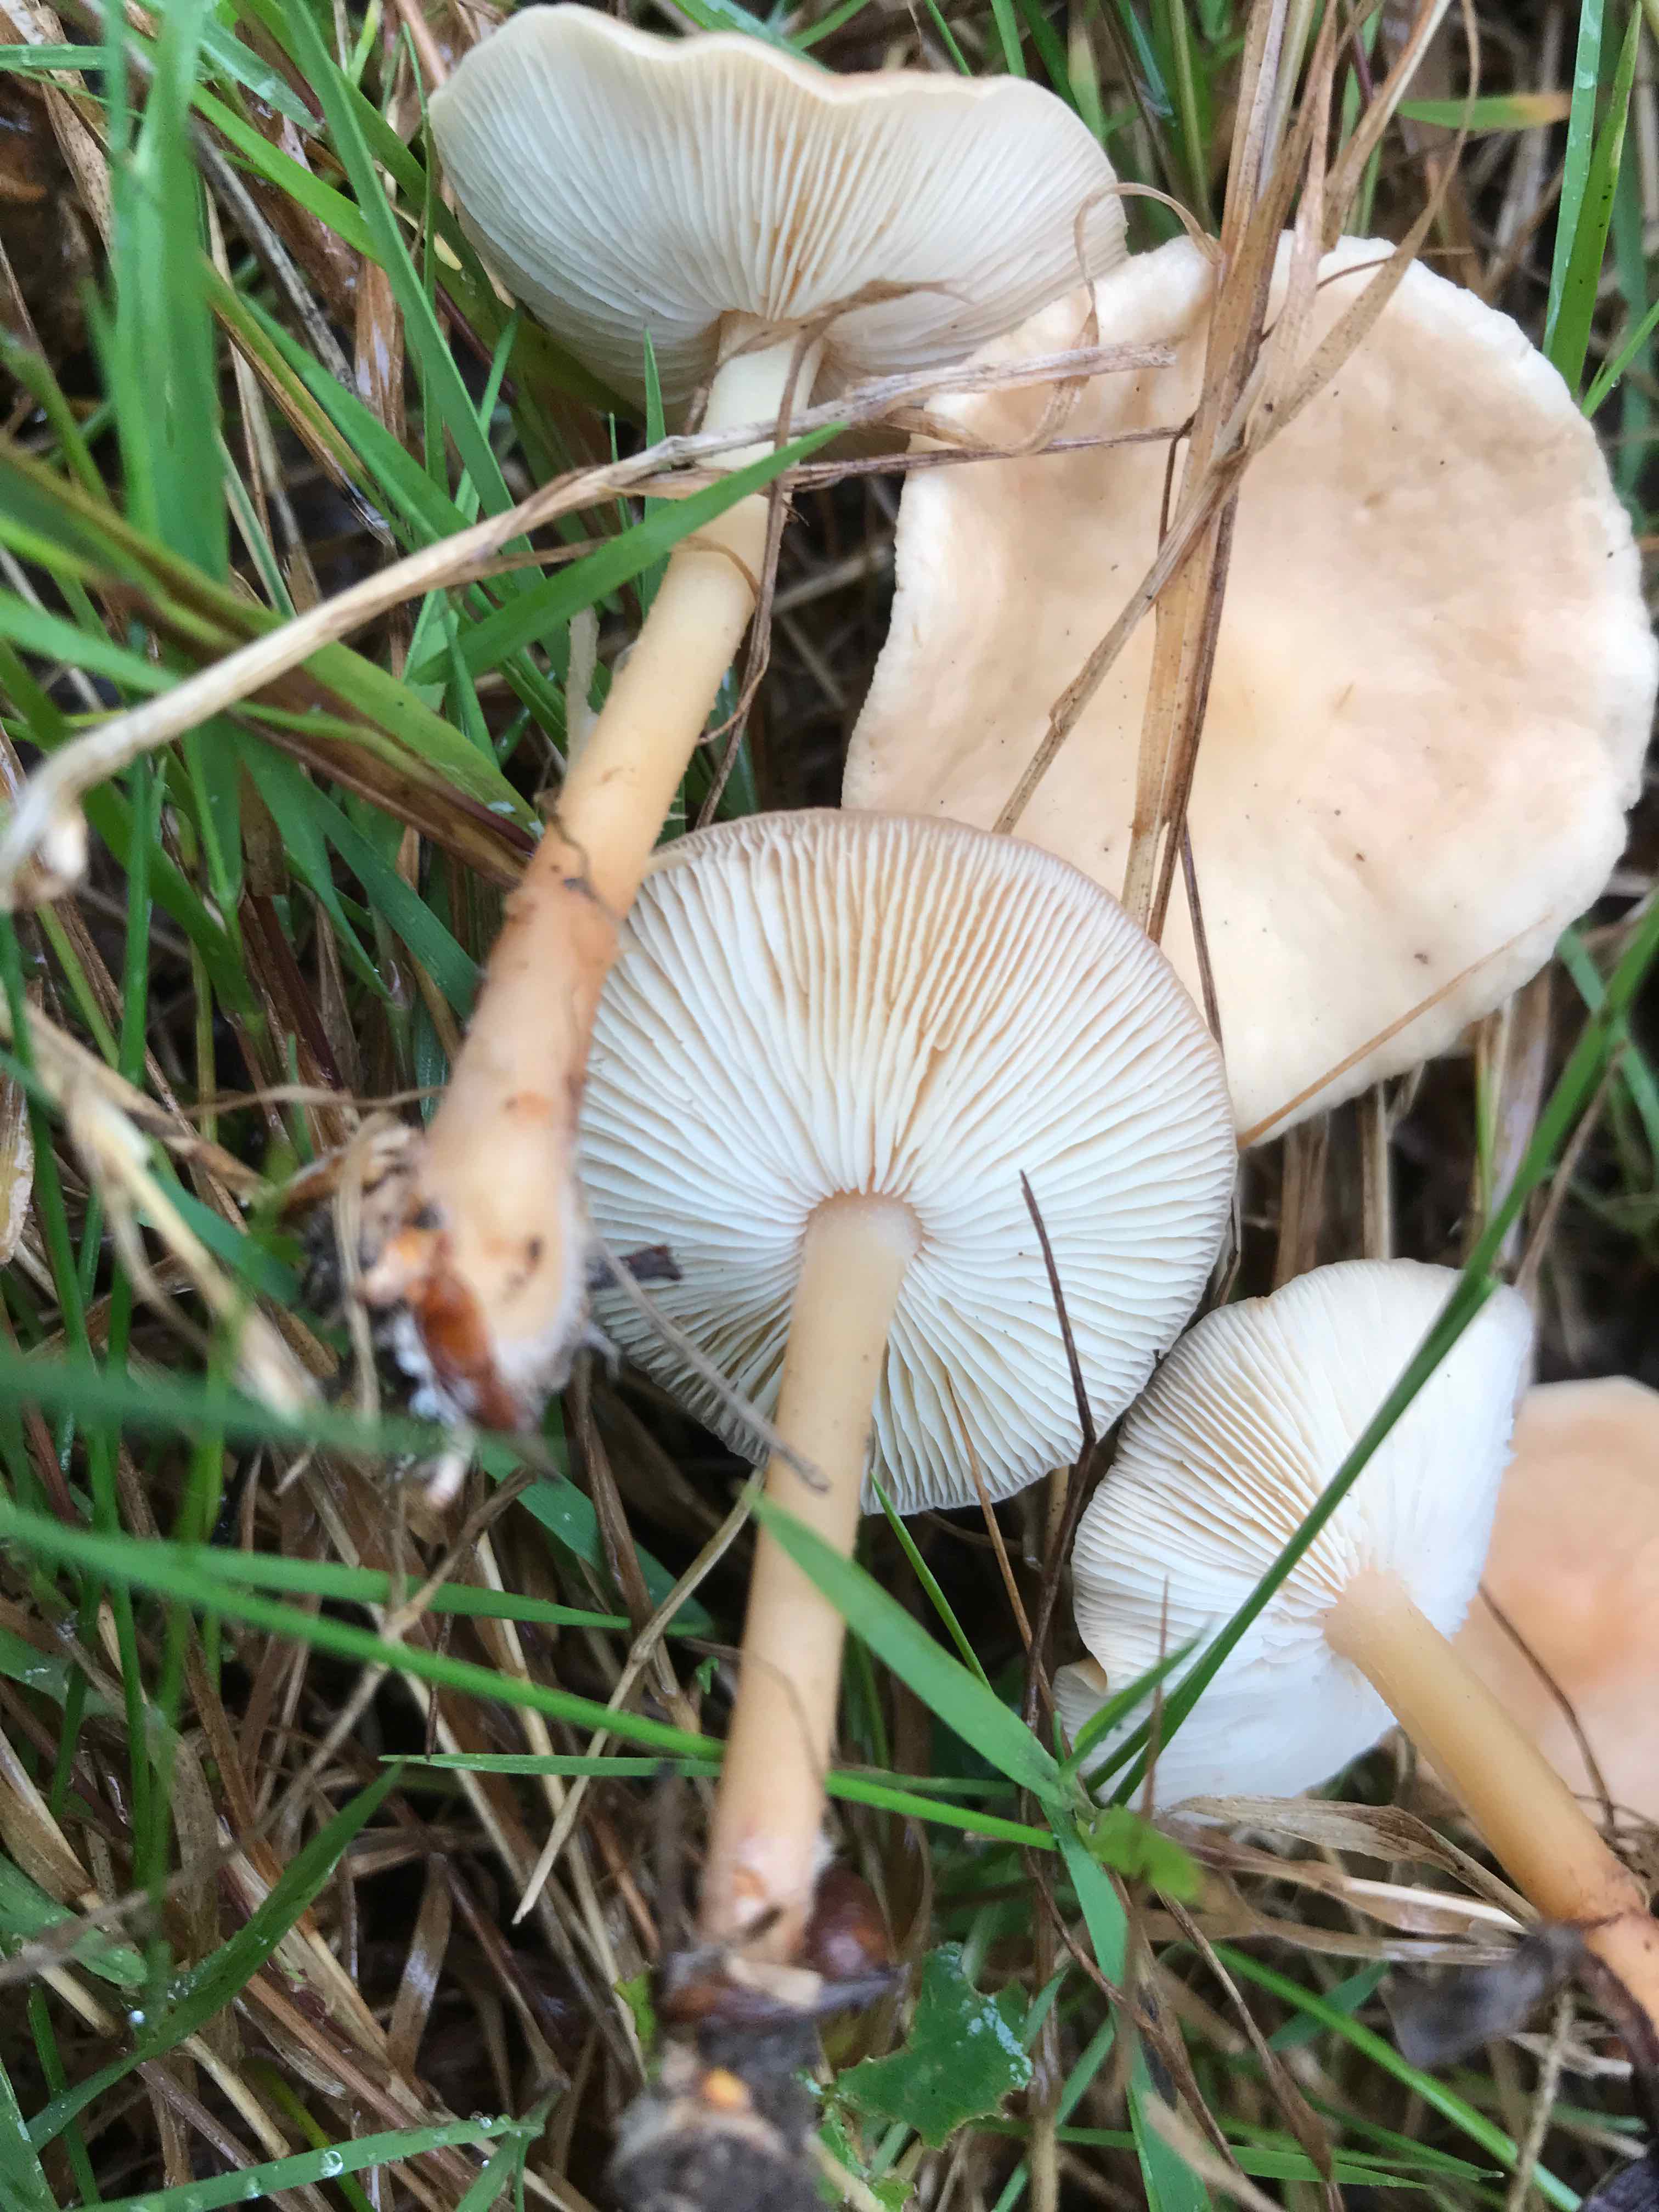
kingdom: Fungi
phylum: Basidiomycota
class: Agaricomycetes
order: Agaricales
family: Omphalotaceae
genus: Gymnopus
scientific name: Gymnopus
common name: fladhat
